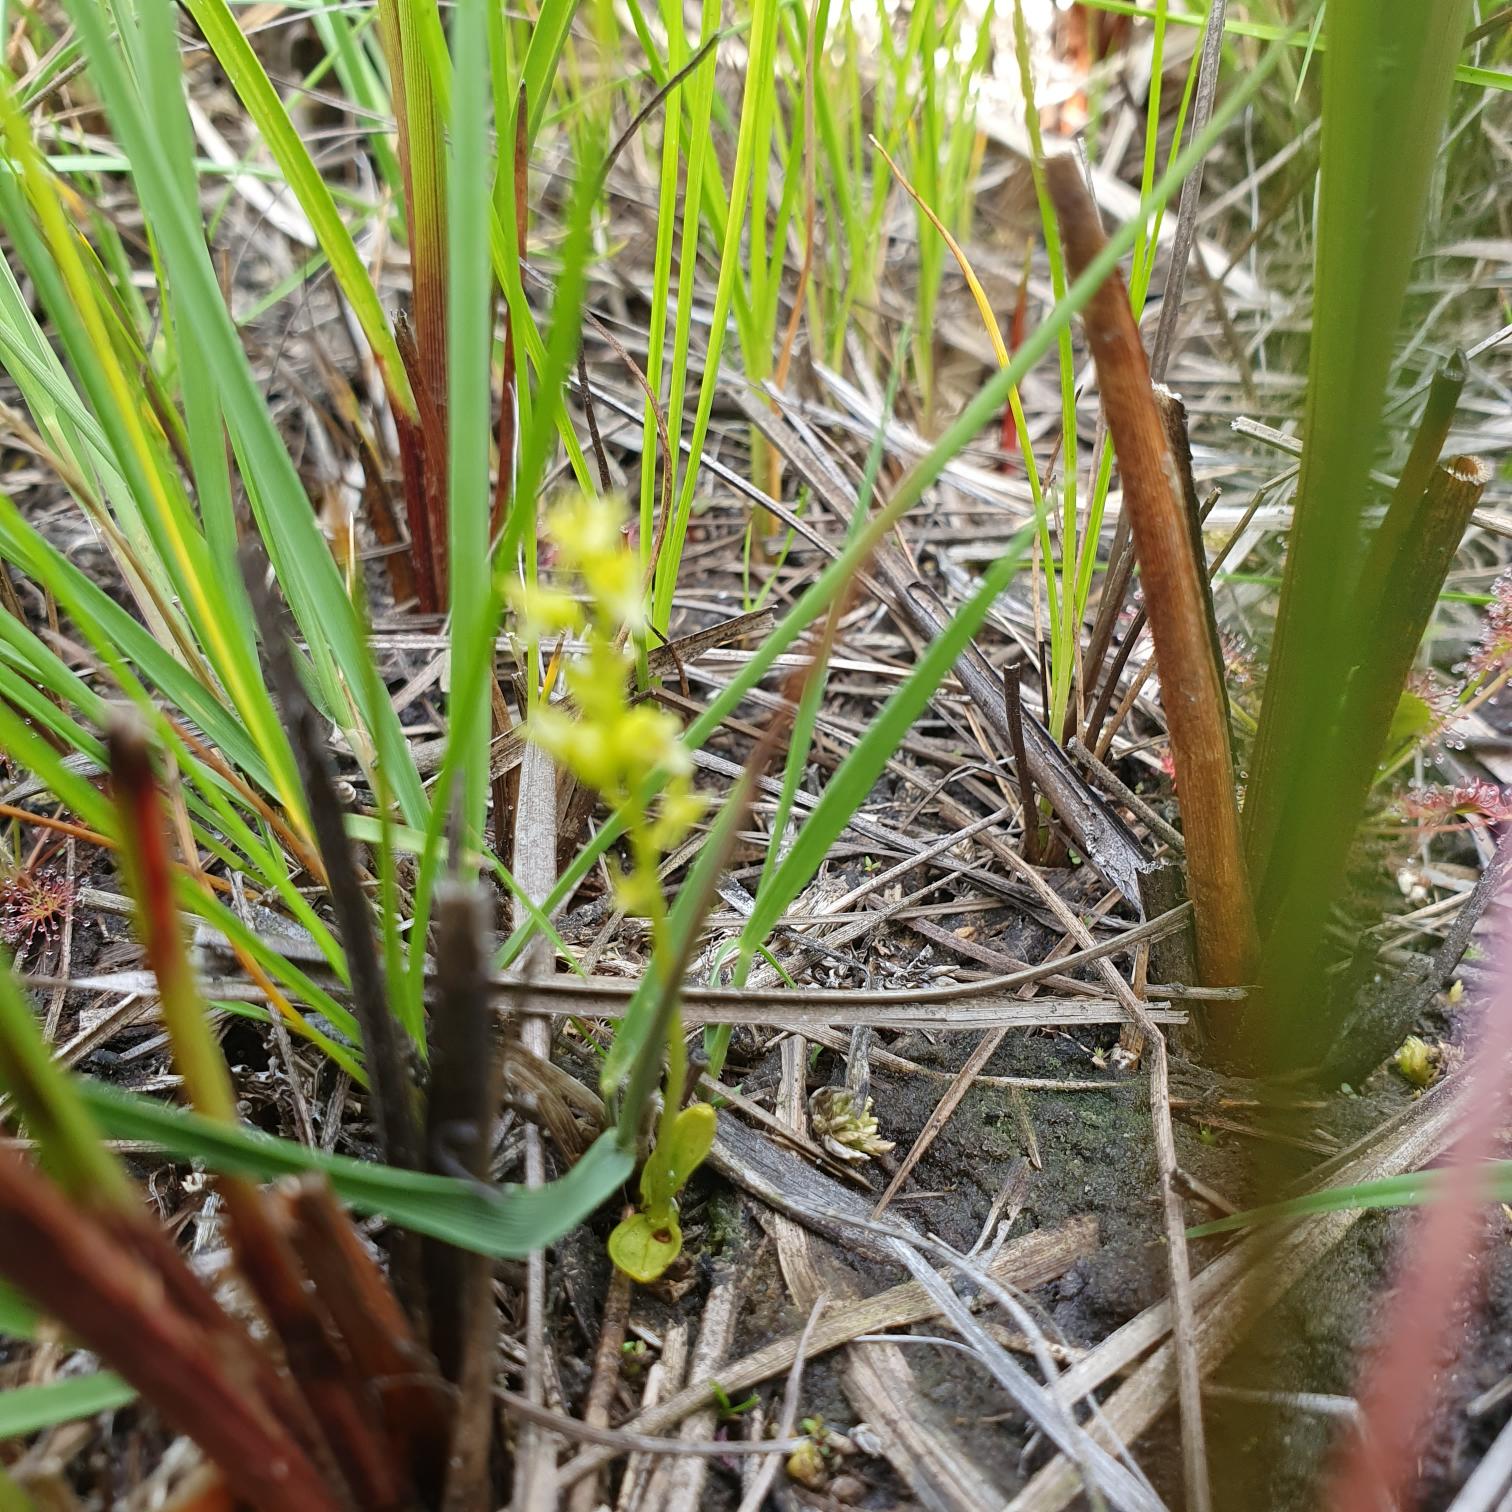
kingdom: Plantae
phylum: Tracheophyta
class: Liliopsida
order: Asparagales
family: Orchidaceae
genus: Hammarbya
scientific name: Hammarbya paludosa
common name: Hjertelæbe
